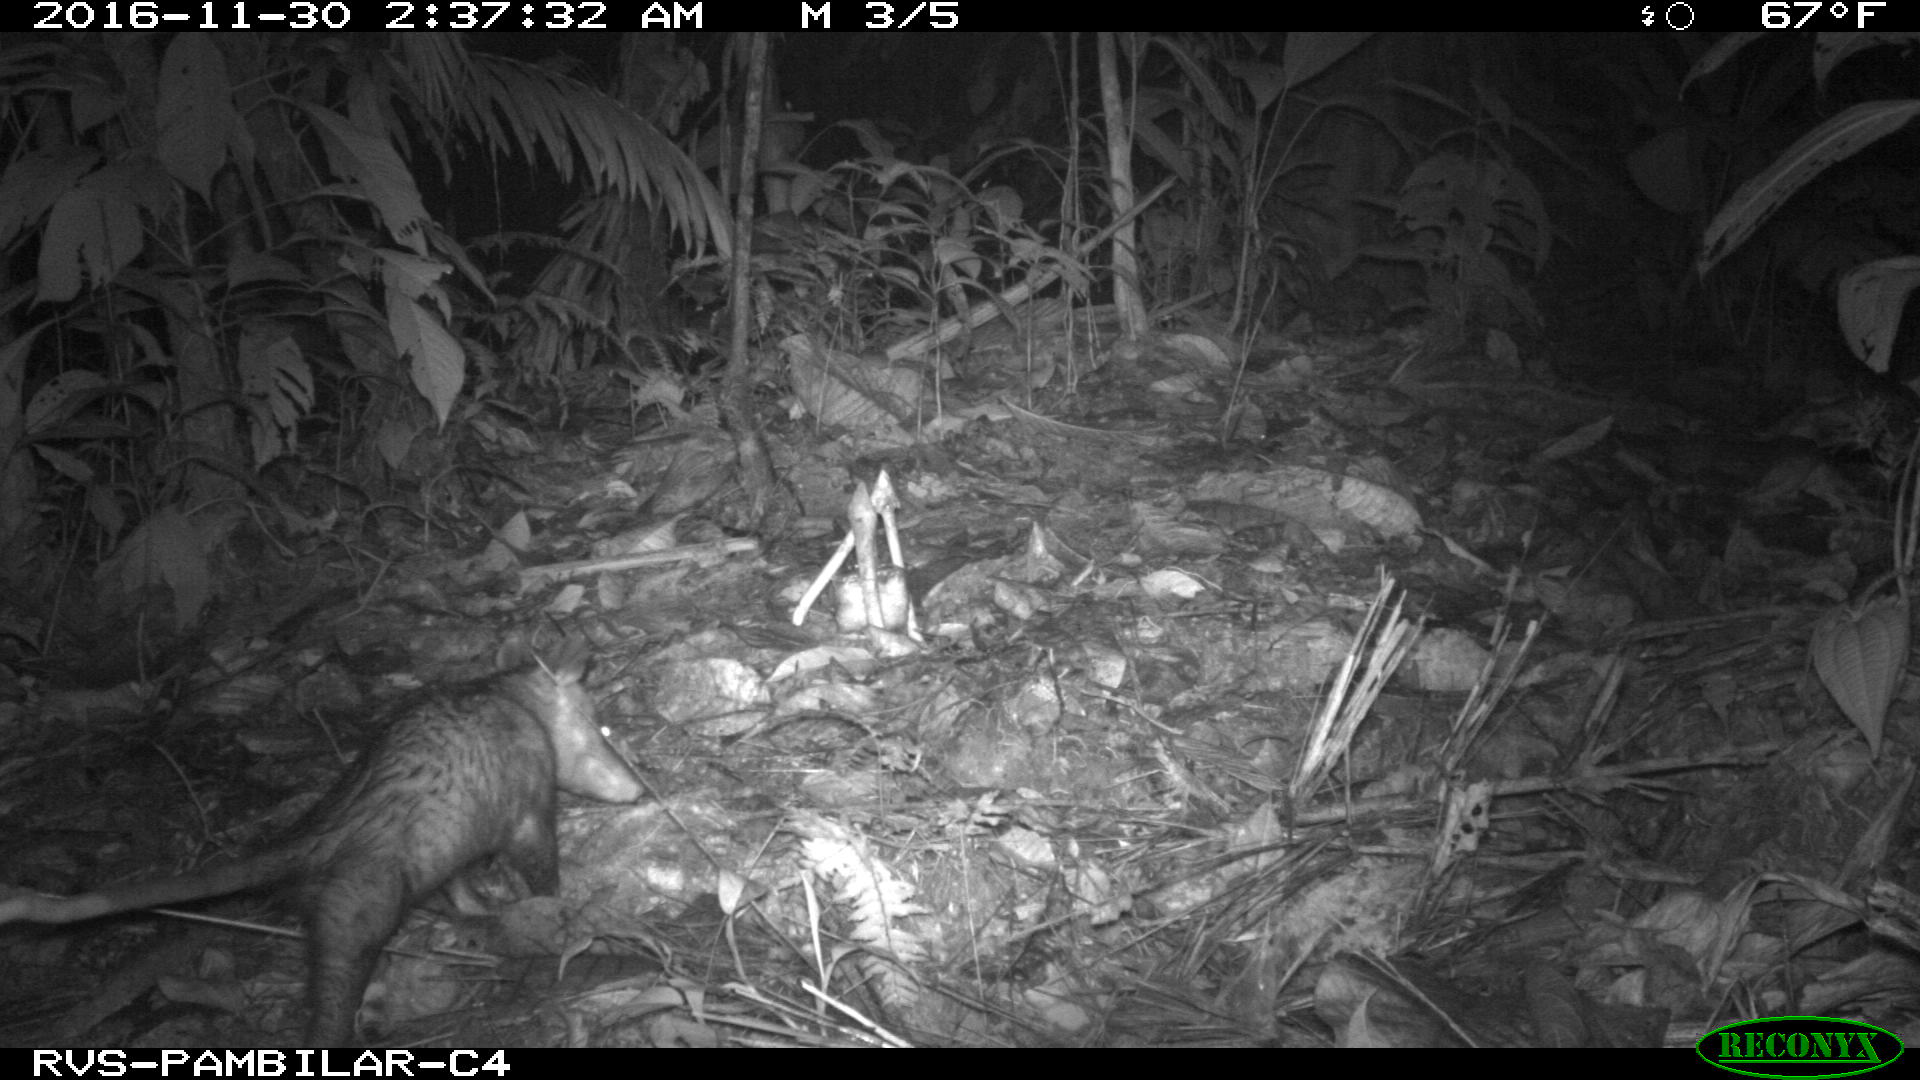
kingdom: Animalia
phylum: Chordata
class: Mammalia
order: Didelphimorphia
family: Didelphidae
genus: Didelphis
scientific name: Didelphis marsupialis
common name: Common opossum
